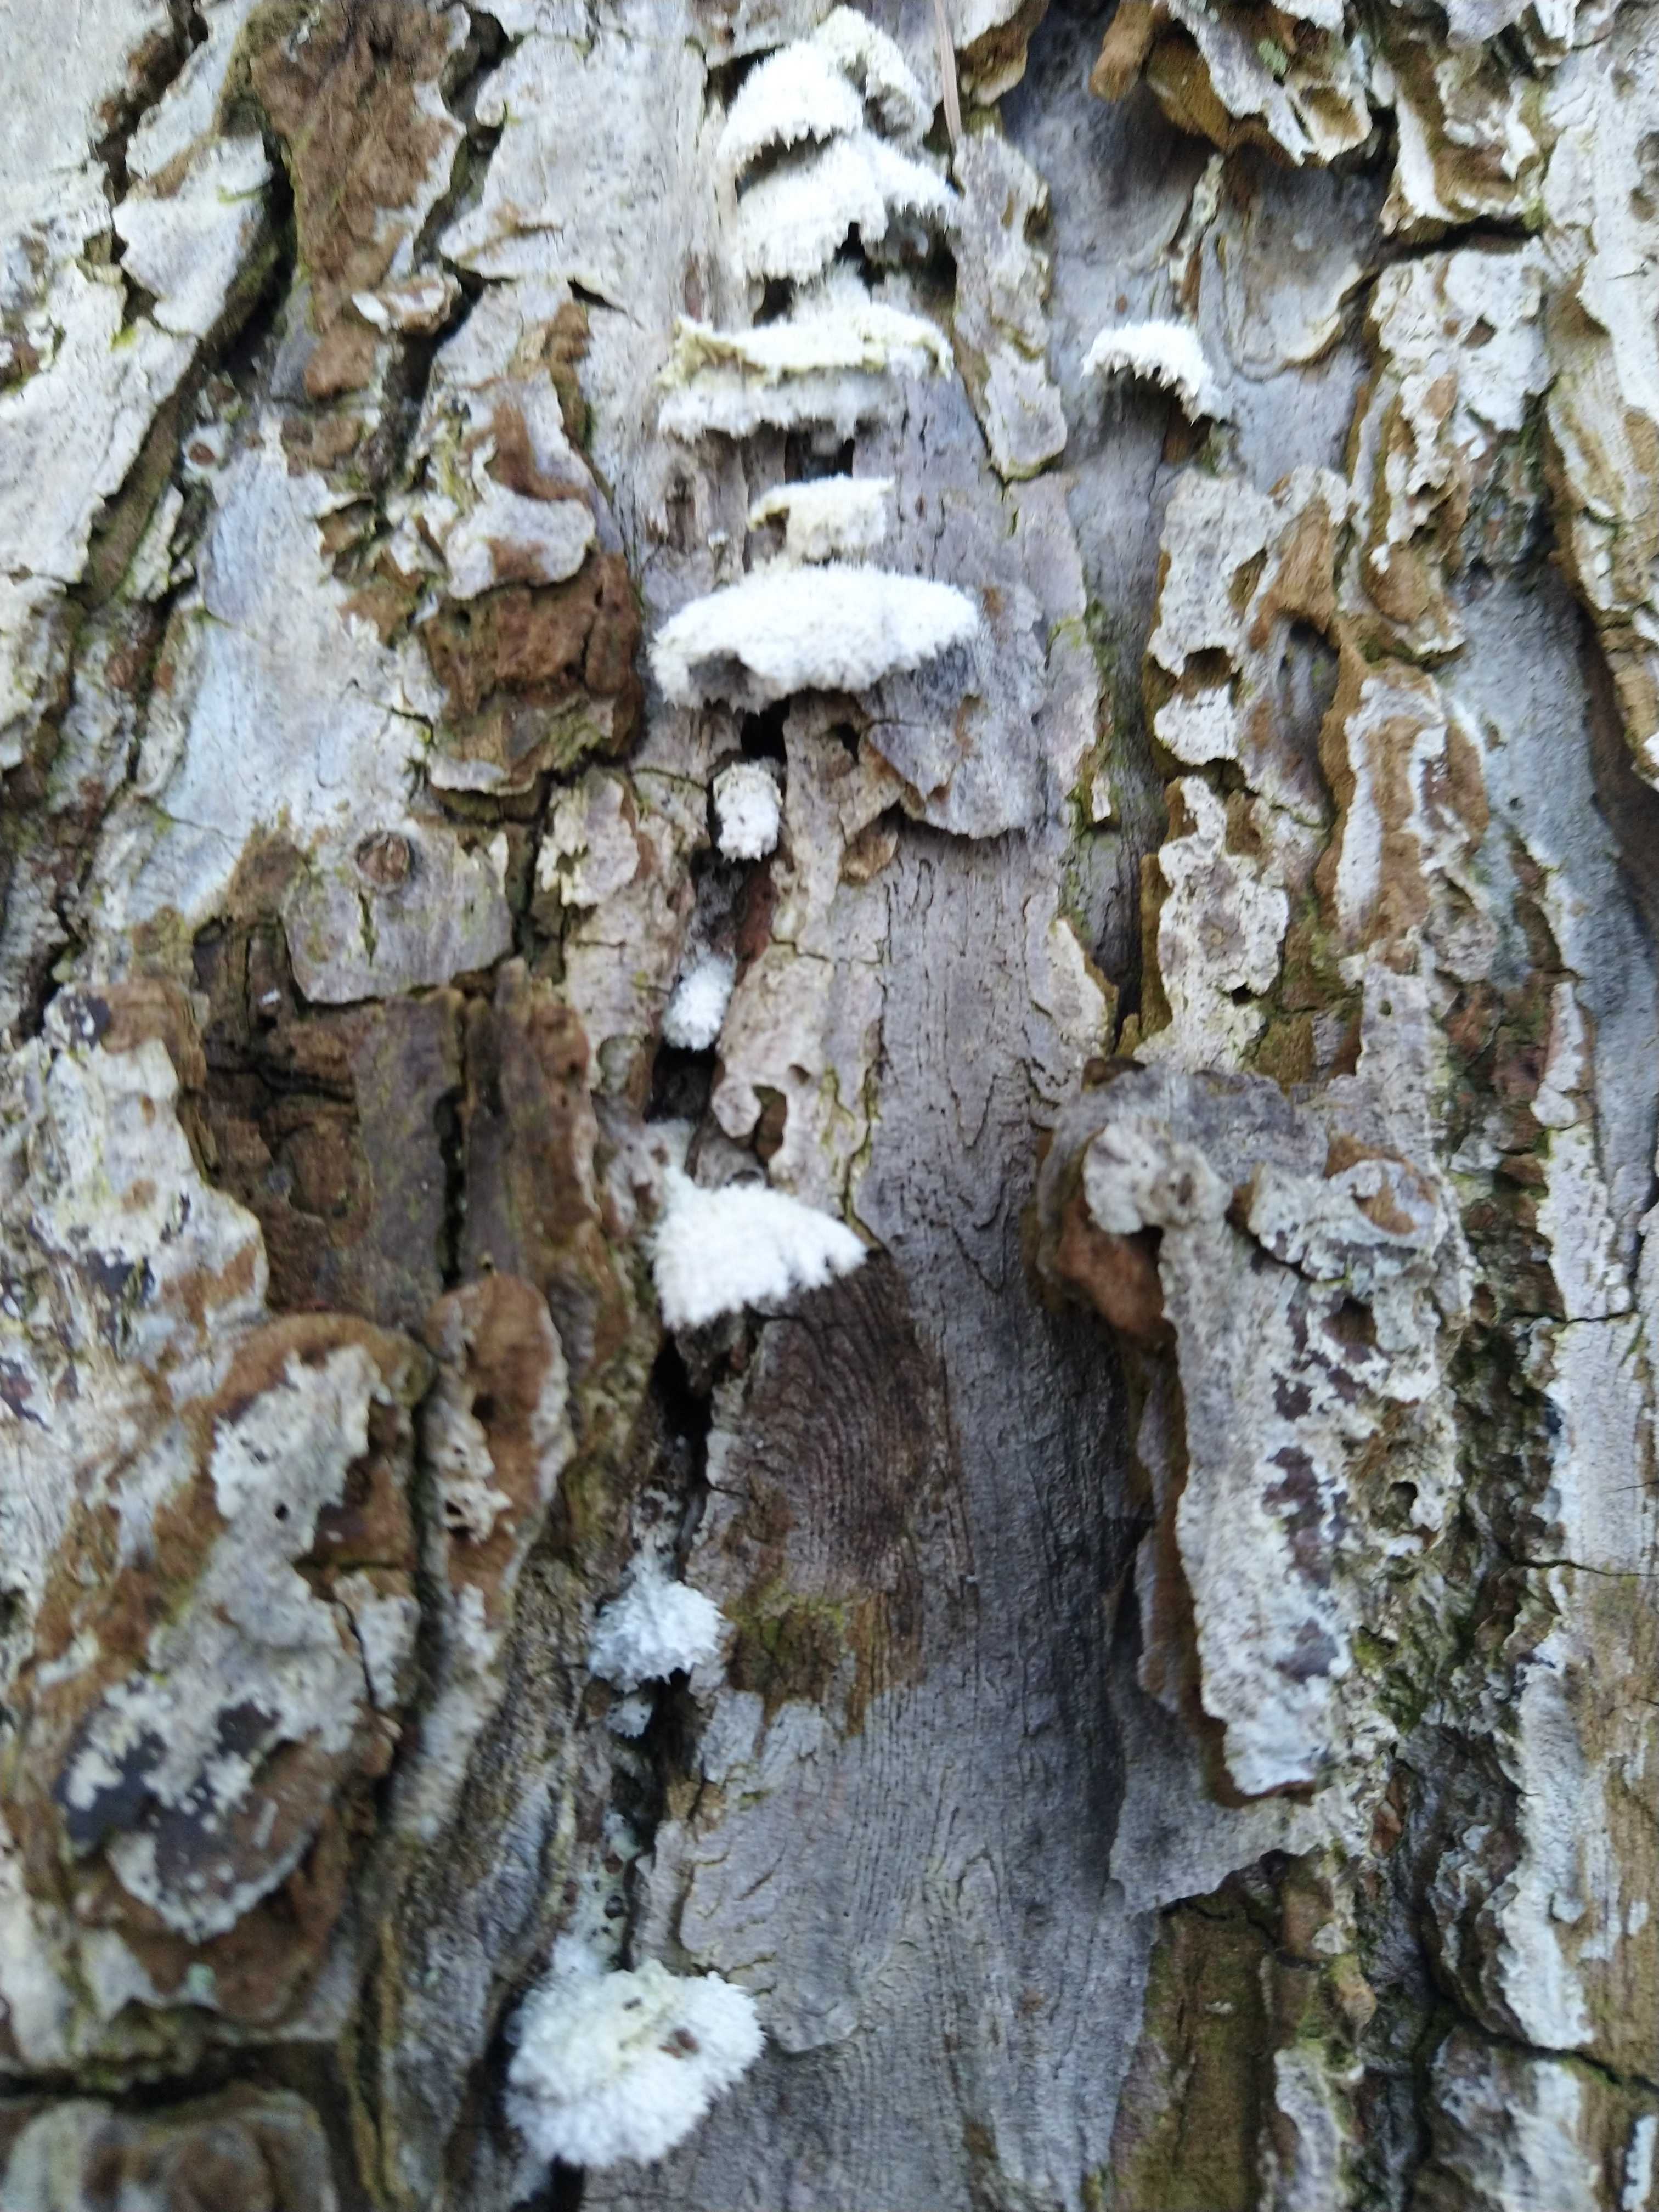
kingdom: Fungi
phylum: Basidiomycota
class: Agaricomycetes
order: Agaricales
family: Schizophyllaceae
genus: Schizophyllum
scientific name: Schizophyllum commune
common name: kløvblad
